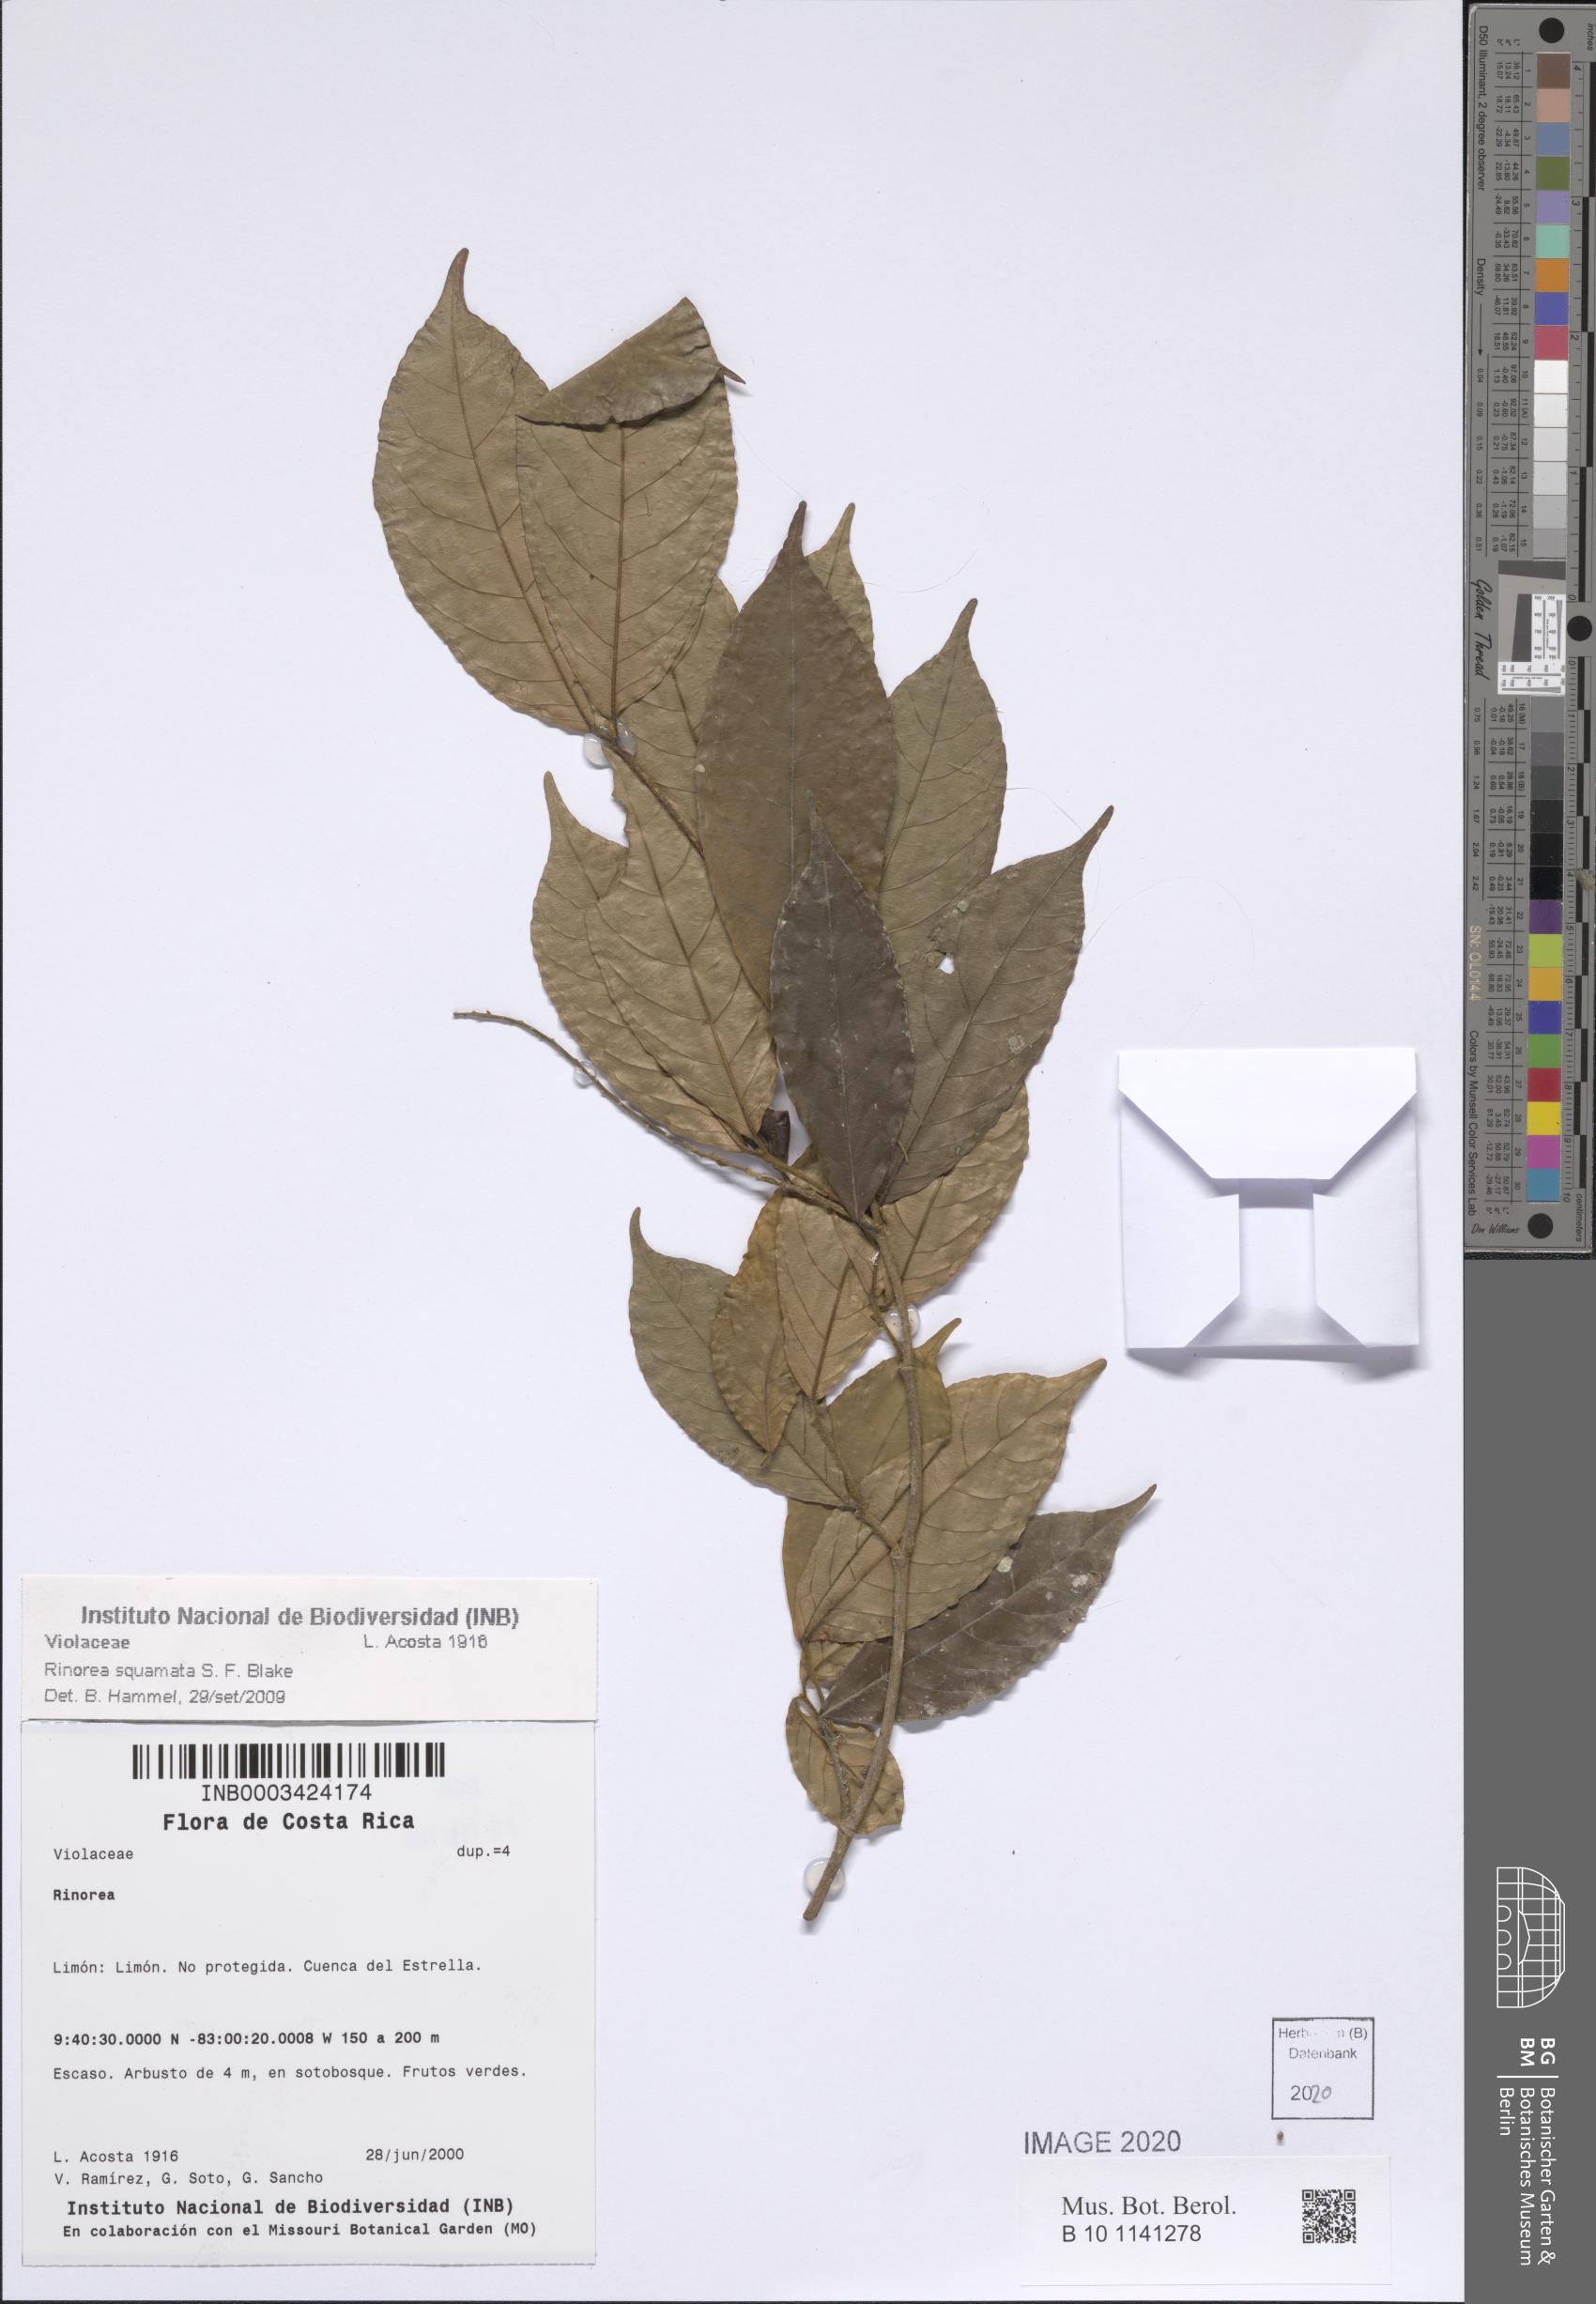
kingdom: Plantae
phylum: Tracheophyta
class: Magnoliopsida
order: Malpighiales
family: Violaceae
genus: Rinorea
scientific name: Rinorea squamata
